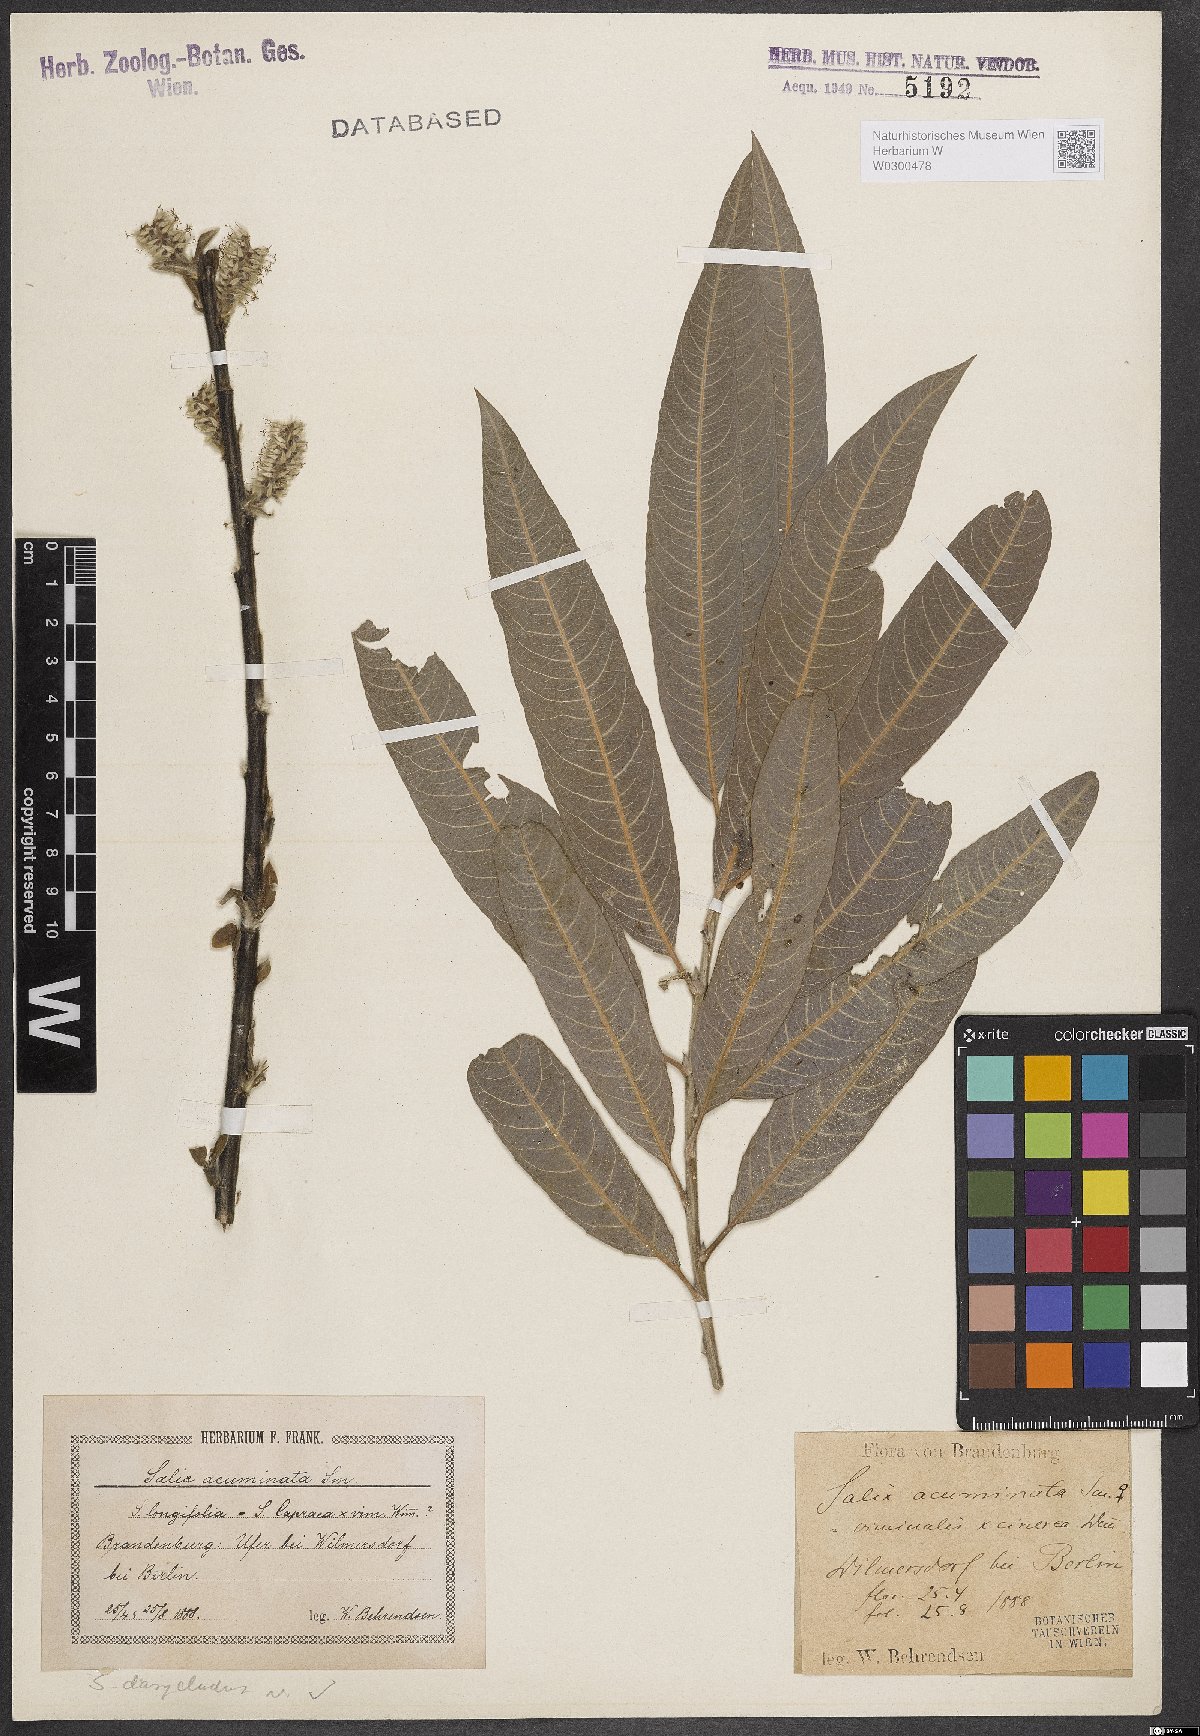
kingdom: Plantae
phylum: Tracheophyta
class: Magnoliopsida
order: Malpighiales
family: Salicaceae
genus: Salix
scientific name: Salix gmelinii
